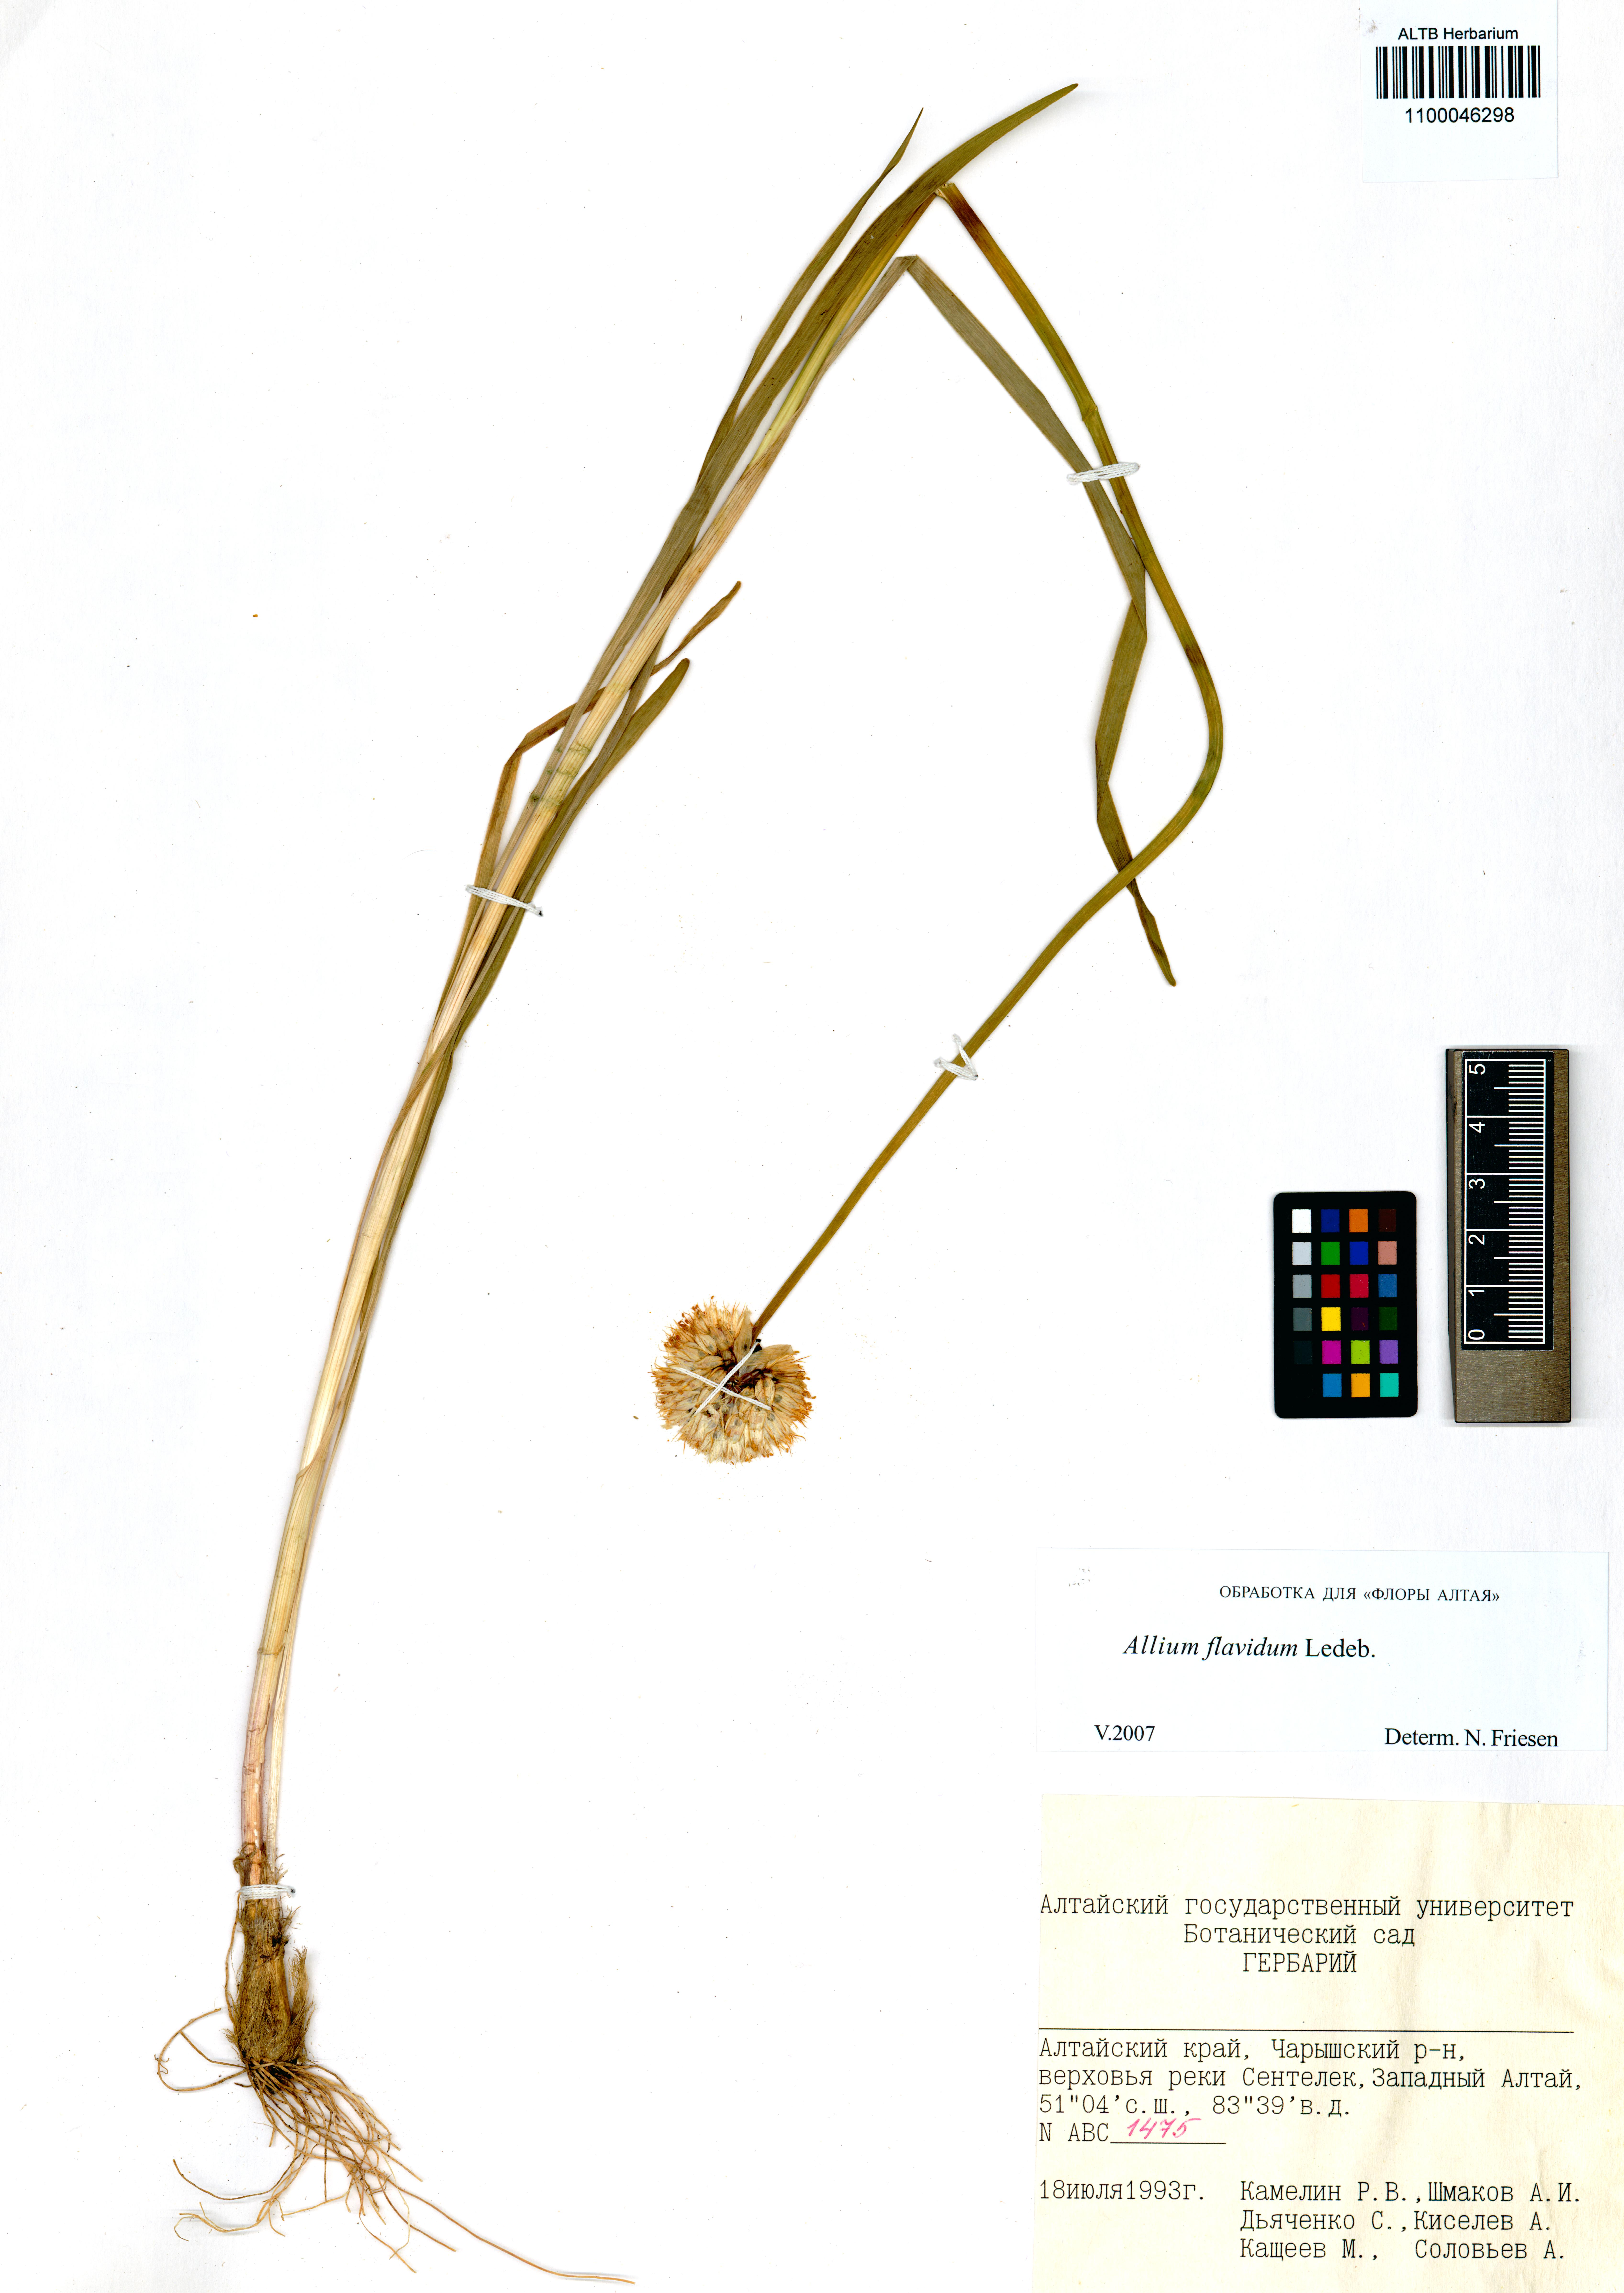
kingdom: Plantae
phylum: Tracheophyta
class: Liliopsida
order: Asparagales
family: Amaryllidaceae
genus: Allium
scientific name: Allium flavidum
